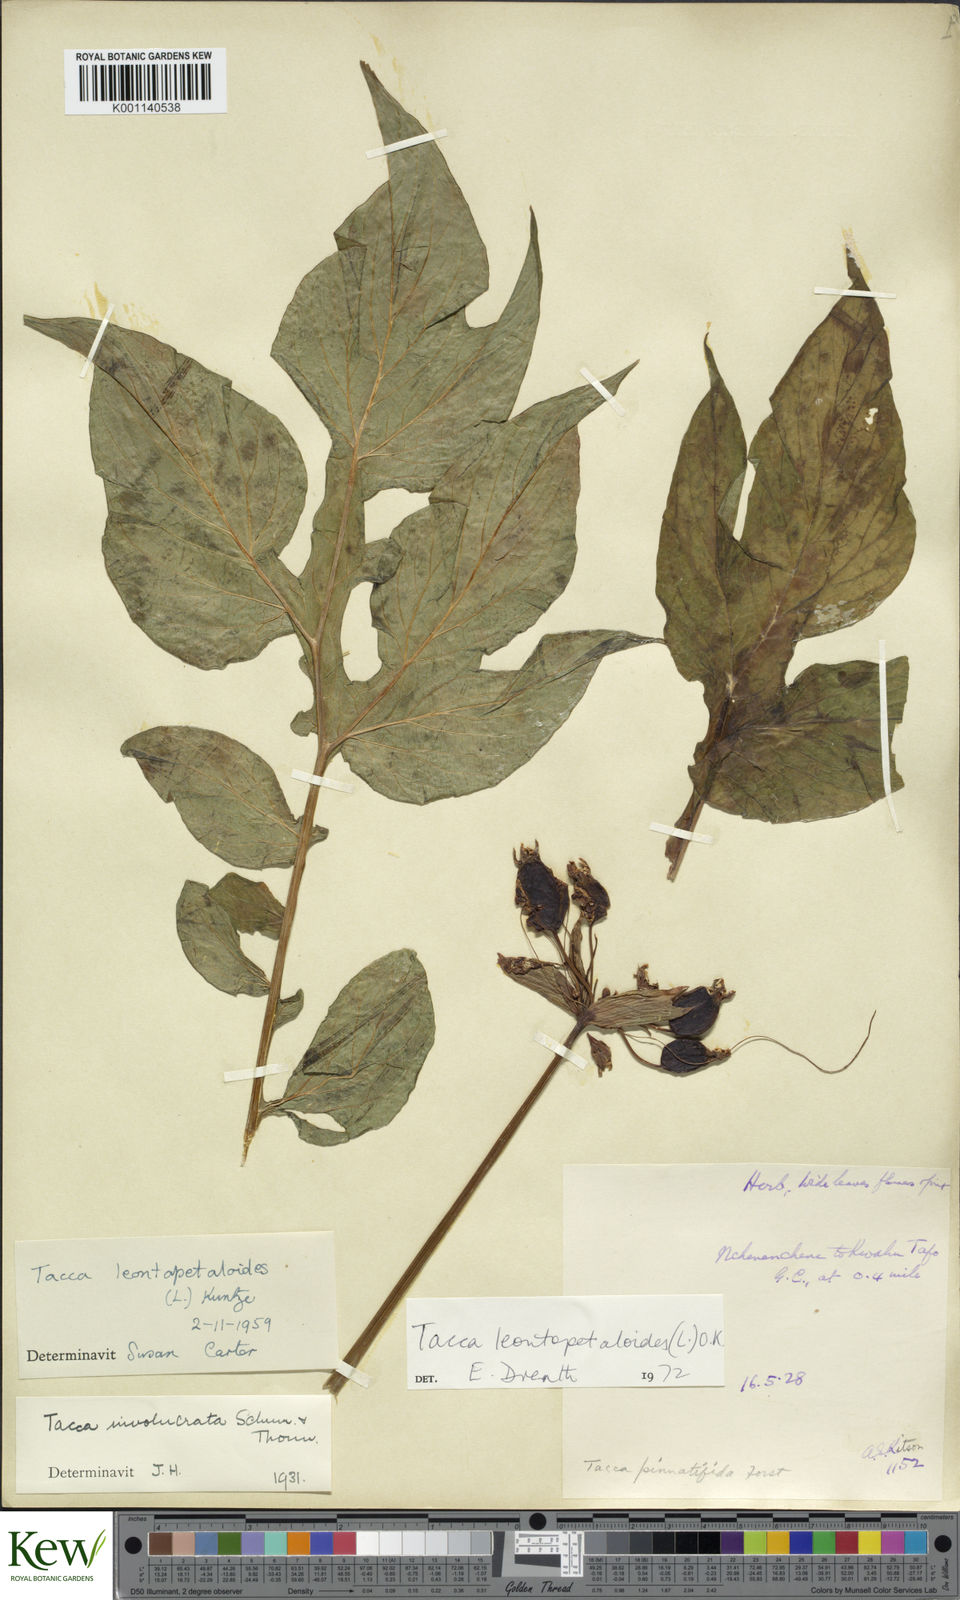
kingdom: Plantae
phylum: Tracheophyta
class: Liliopsida
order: Dioscoreales
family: Dioscoreaceae
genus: Tacca
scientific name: Tacca leontopetaloides
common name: Arrowroot
